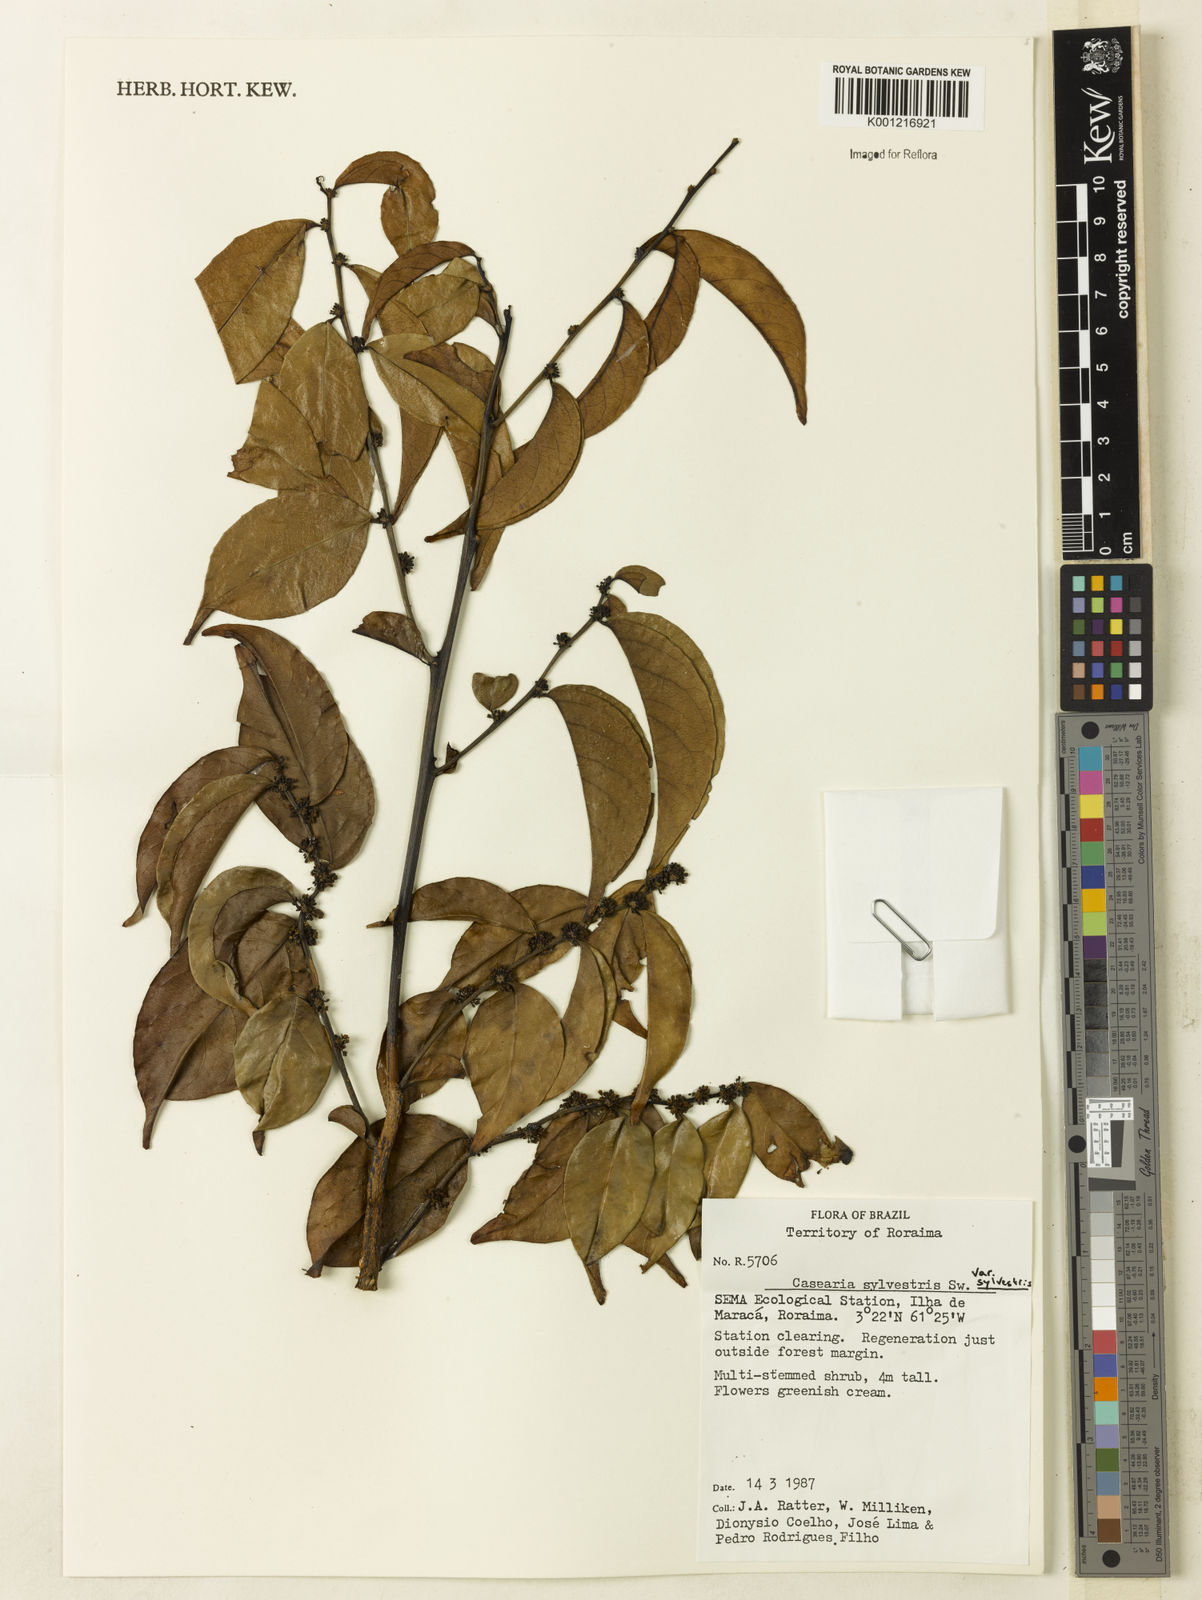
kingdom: Plantae
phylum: Tracheophyta
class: Magnoliopsida
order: Malpighiales
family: Salicaceae
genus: Casearia
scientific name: Casearia sylvestris
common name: Wild sage
